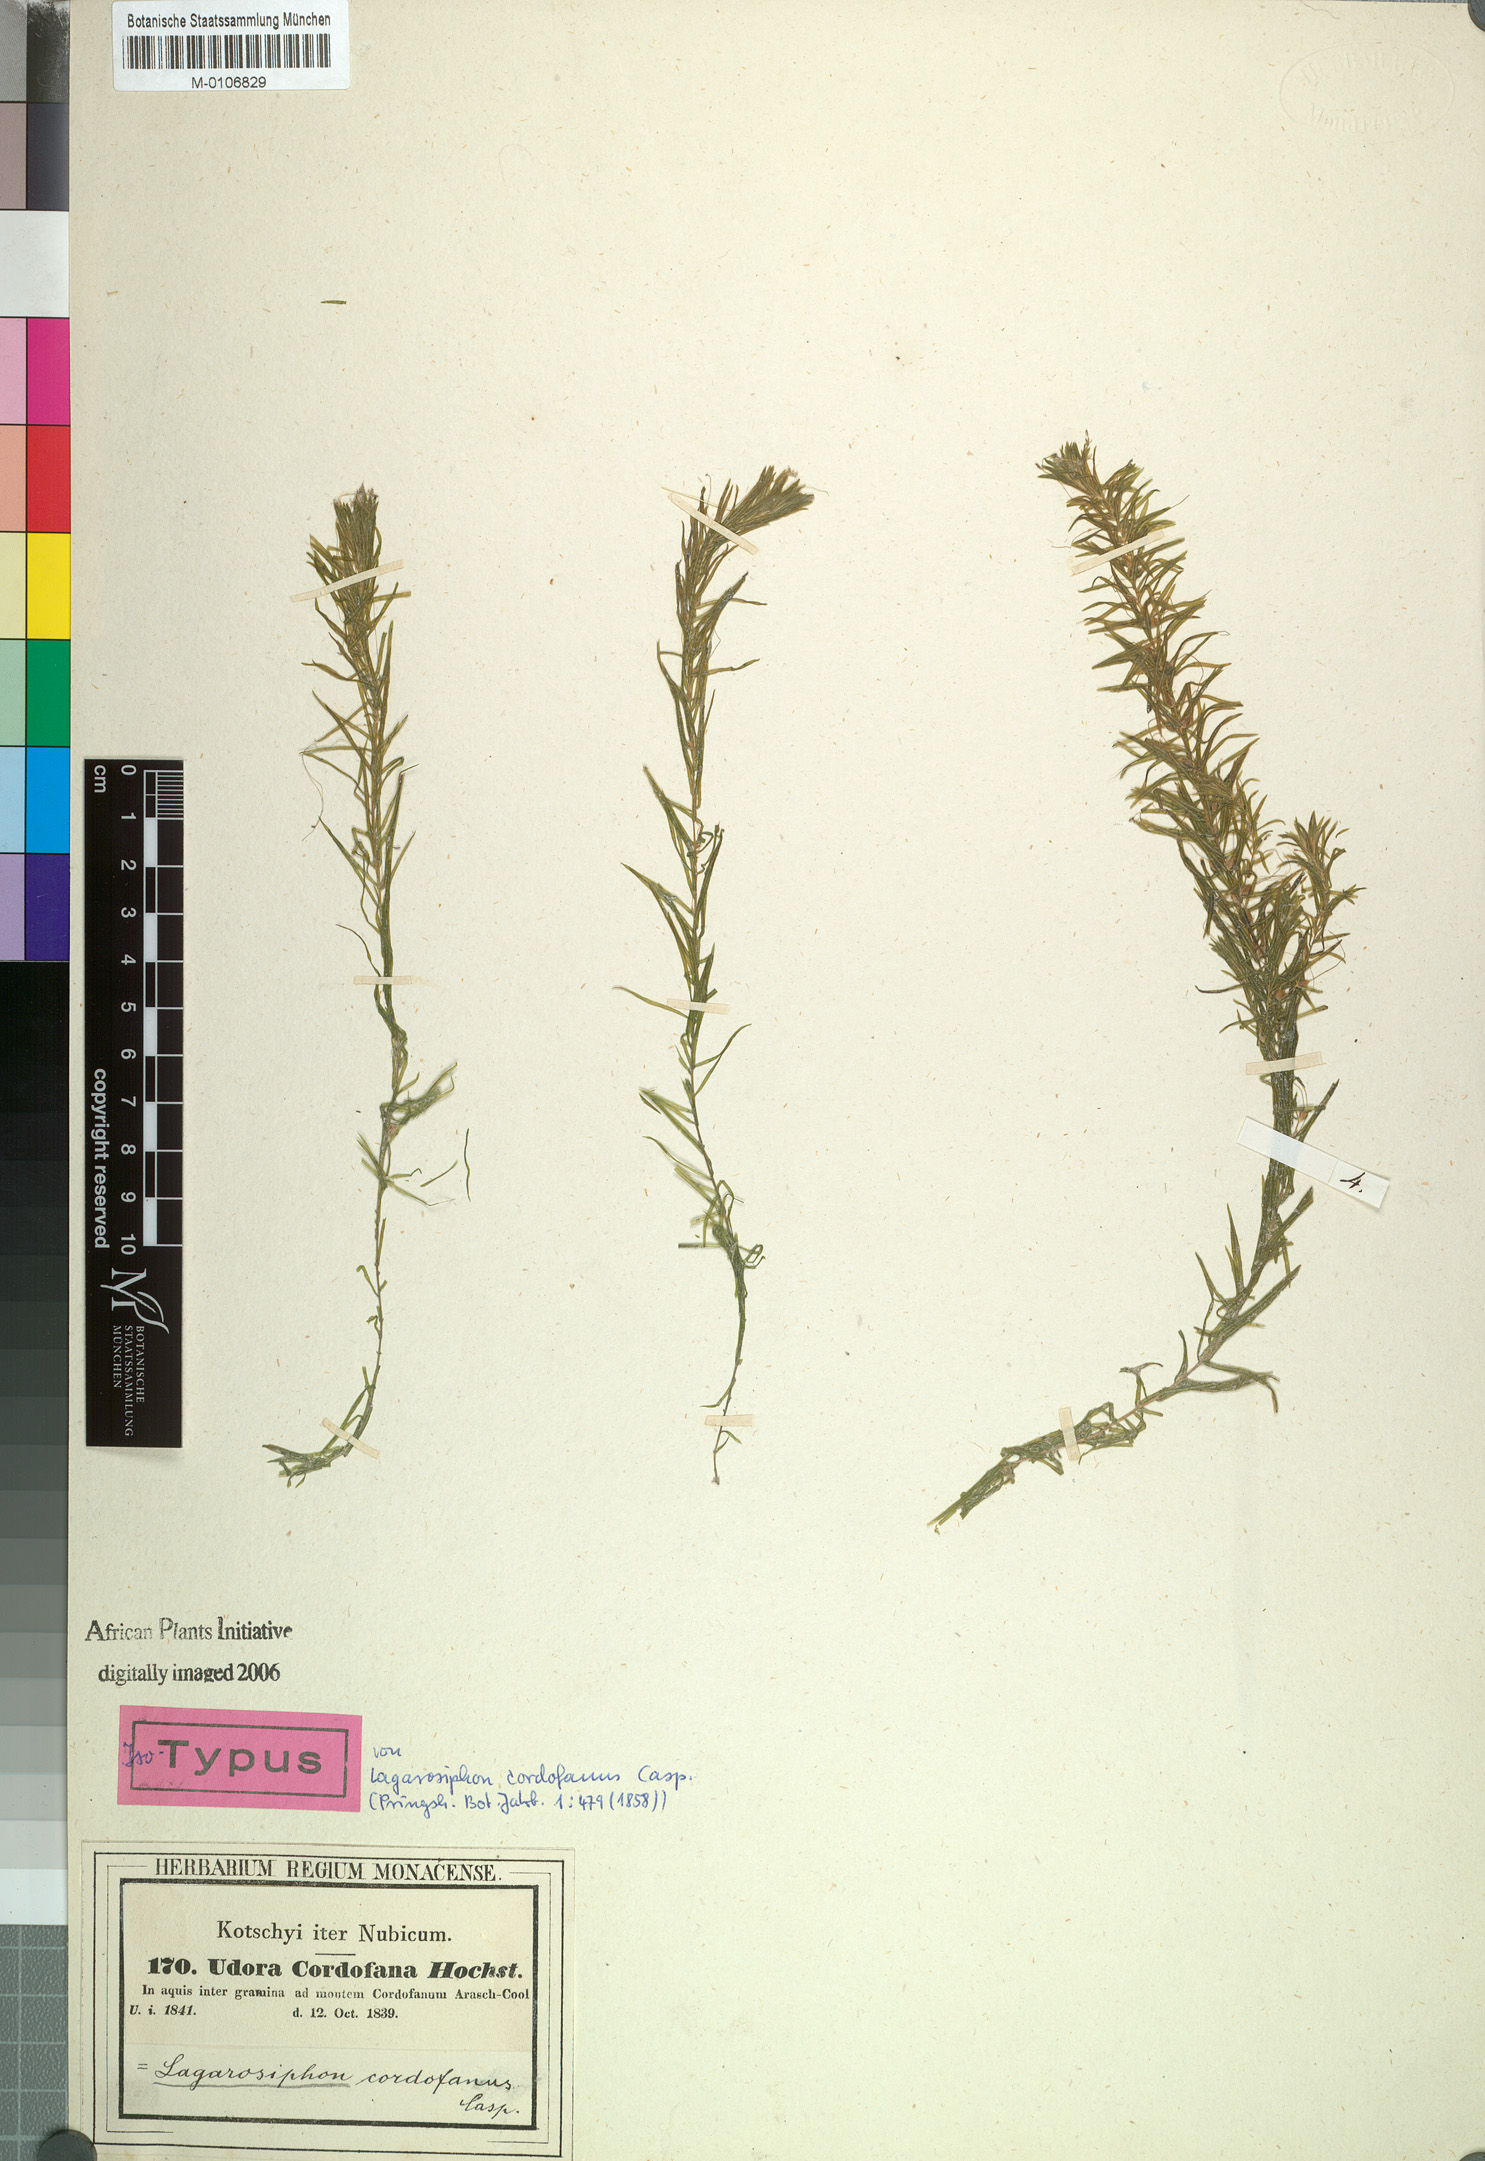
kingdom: Plantae
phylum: Tracheophyta
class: Liliopsida
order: Alismatales
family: Hydrocharitaceae
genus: Lagarosiphon
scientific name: Lagarosiphon cordofanus
